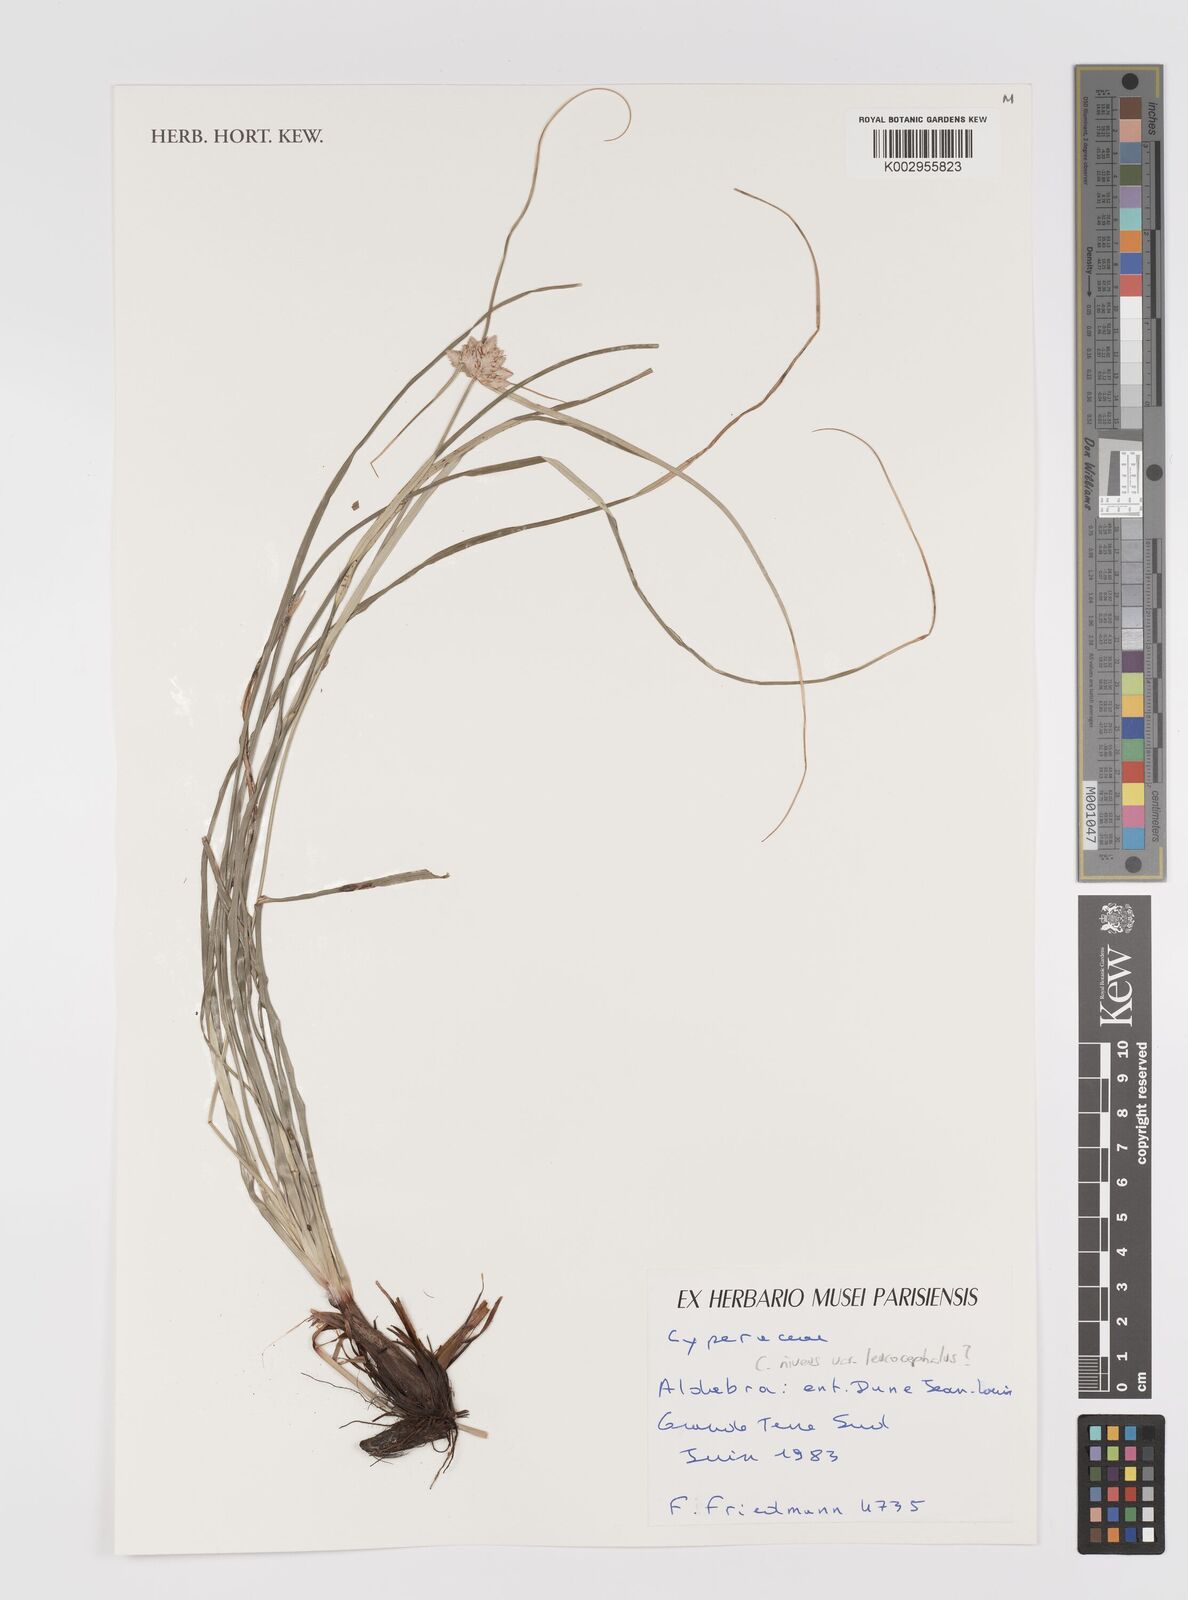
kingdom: Plantae
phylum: Tracheophyta
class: Liliopsida
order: Poales
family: Cyperaceae
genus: Cyperus
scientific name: Cyperus niveus
